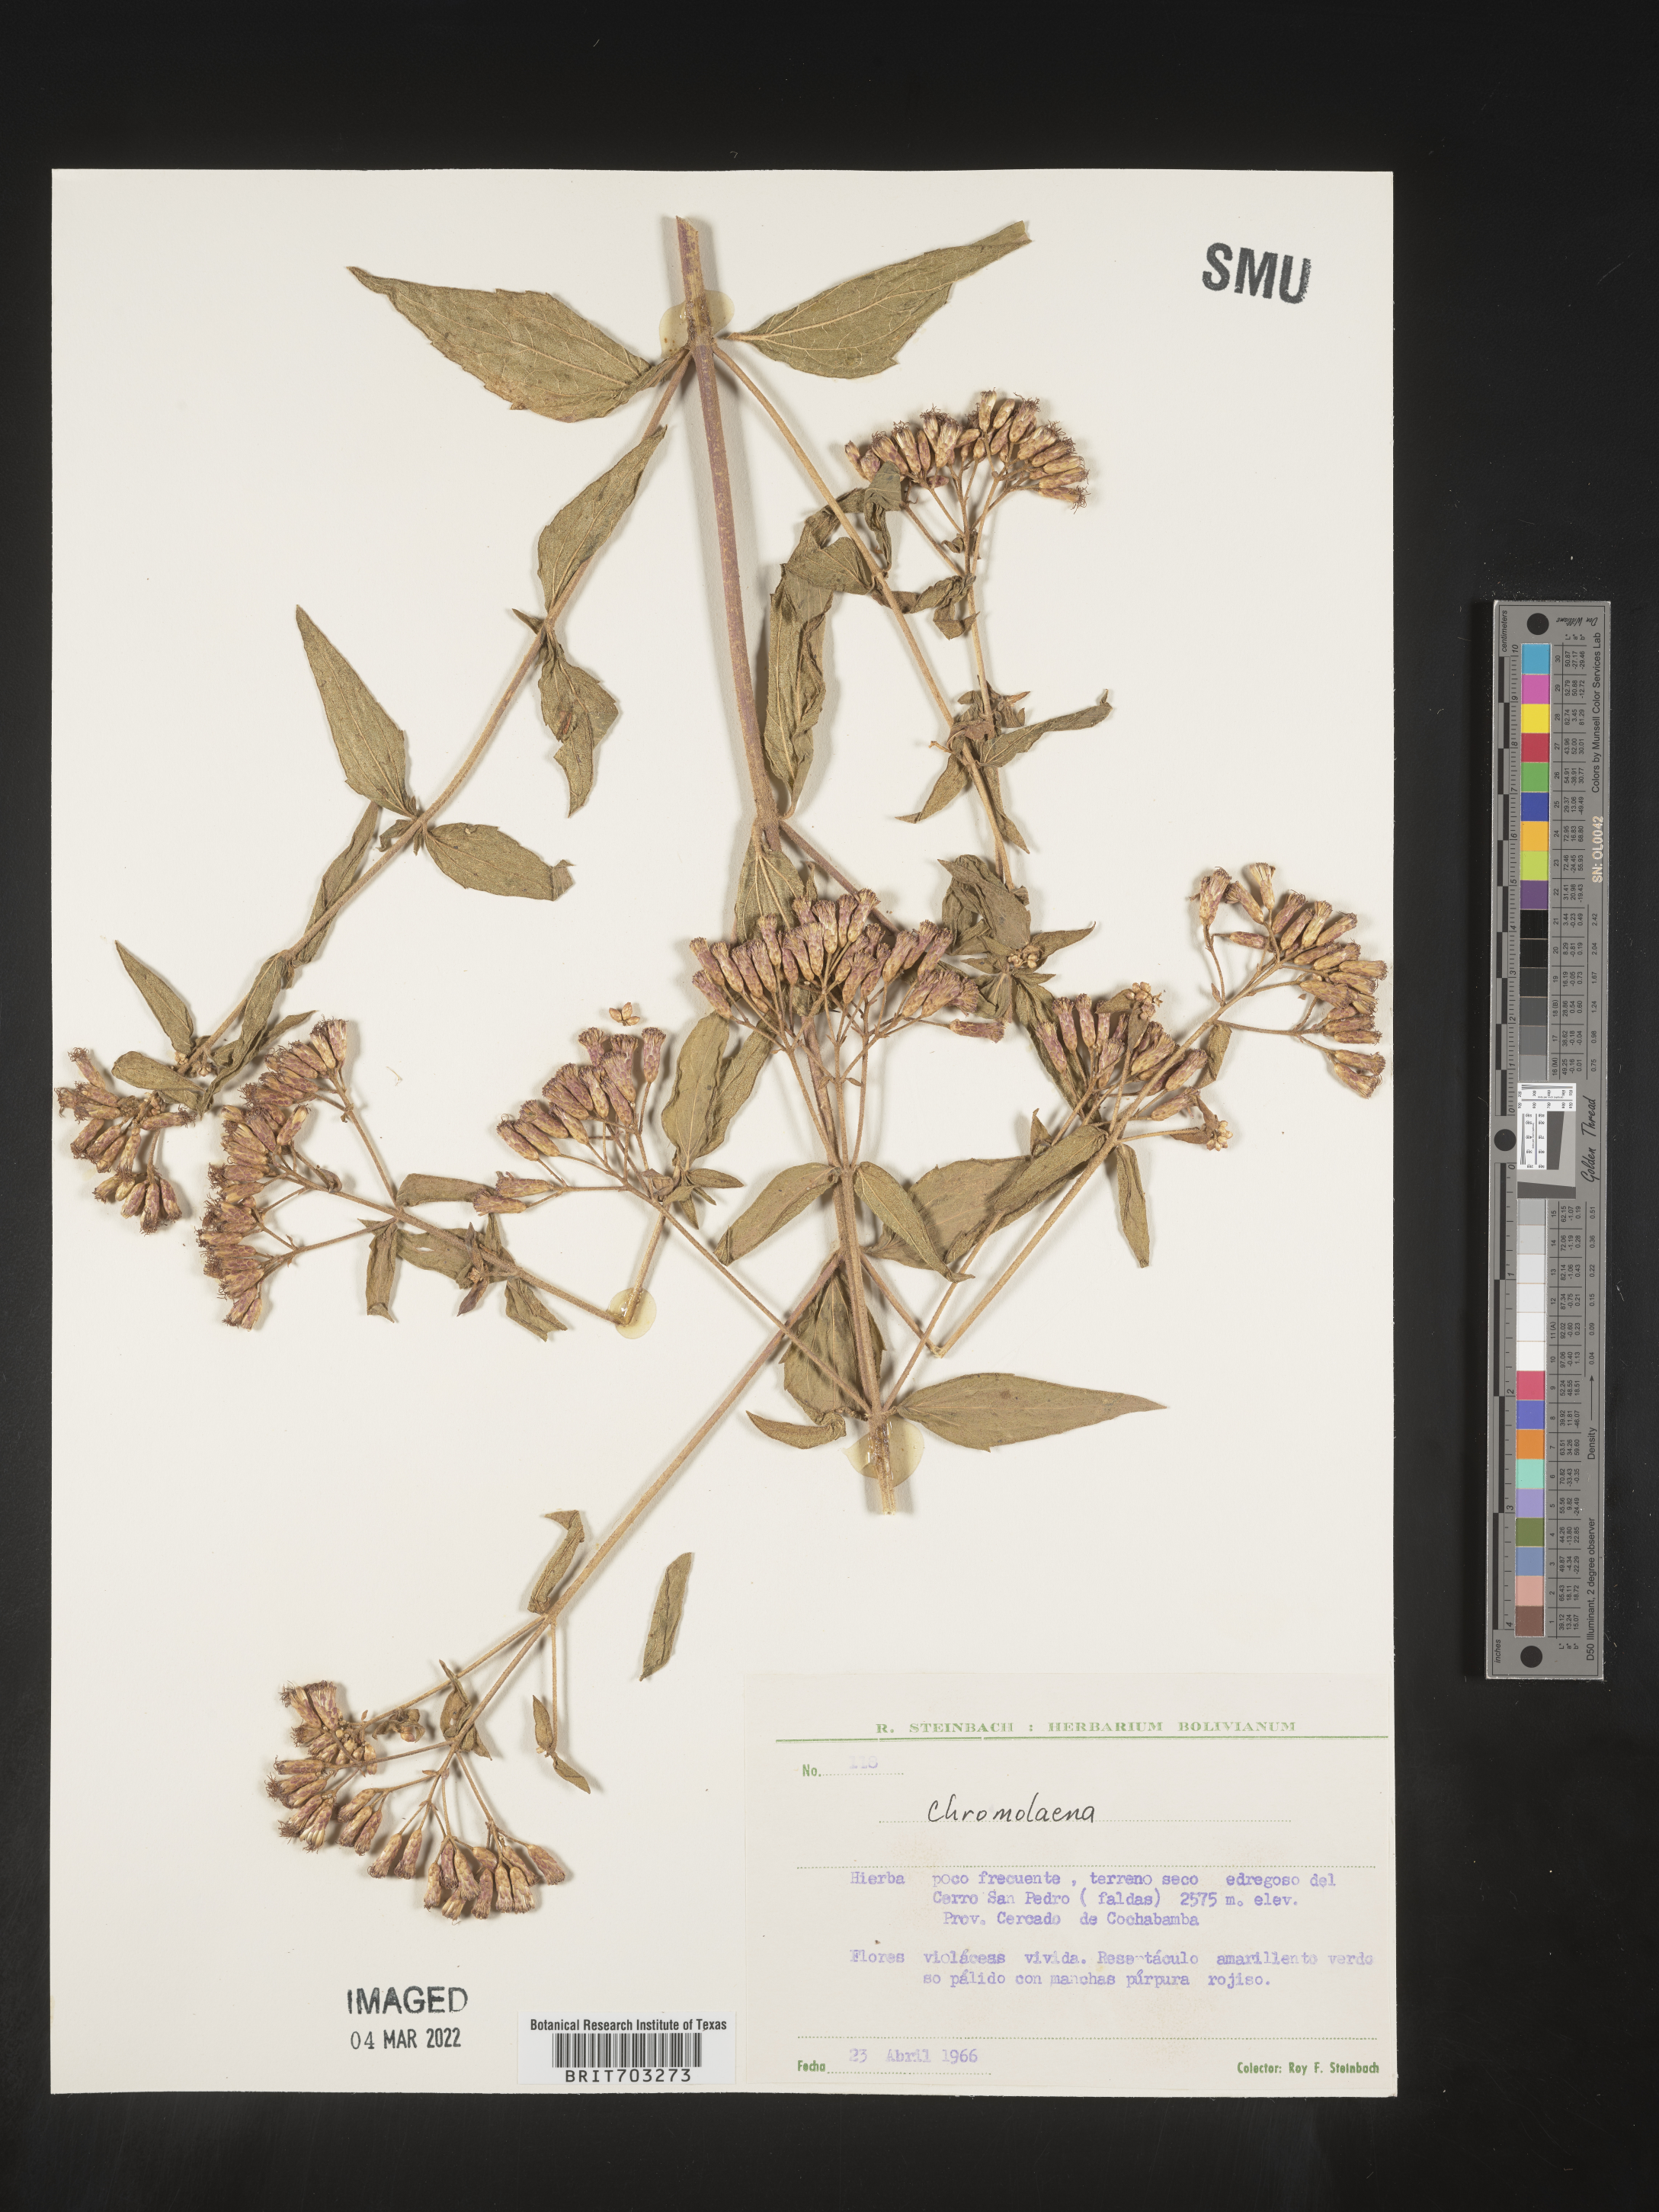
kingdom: Plantae
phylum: Tracheophyta
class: Magnoliopsida
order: Asterales
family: Asteraceae
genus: Eupatorium
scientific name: Eupatorium
